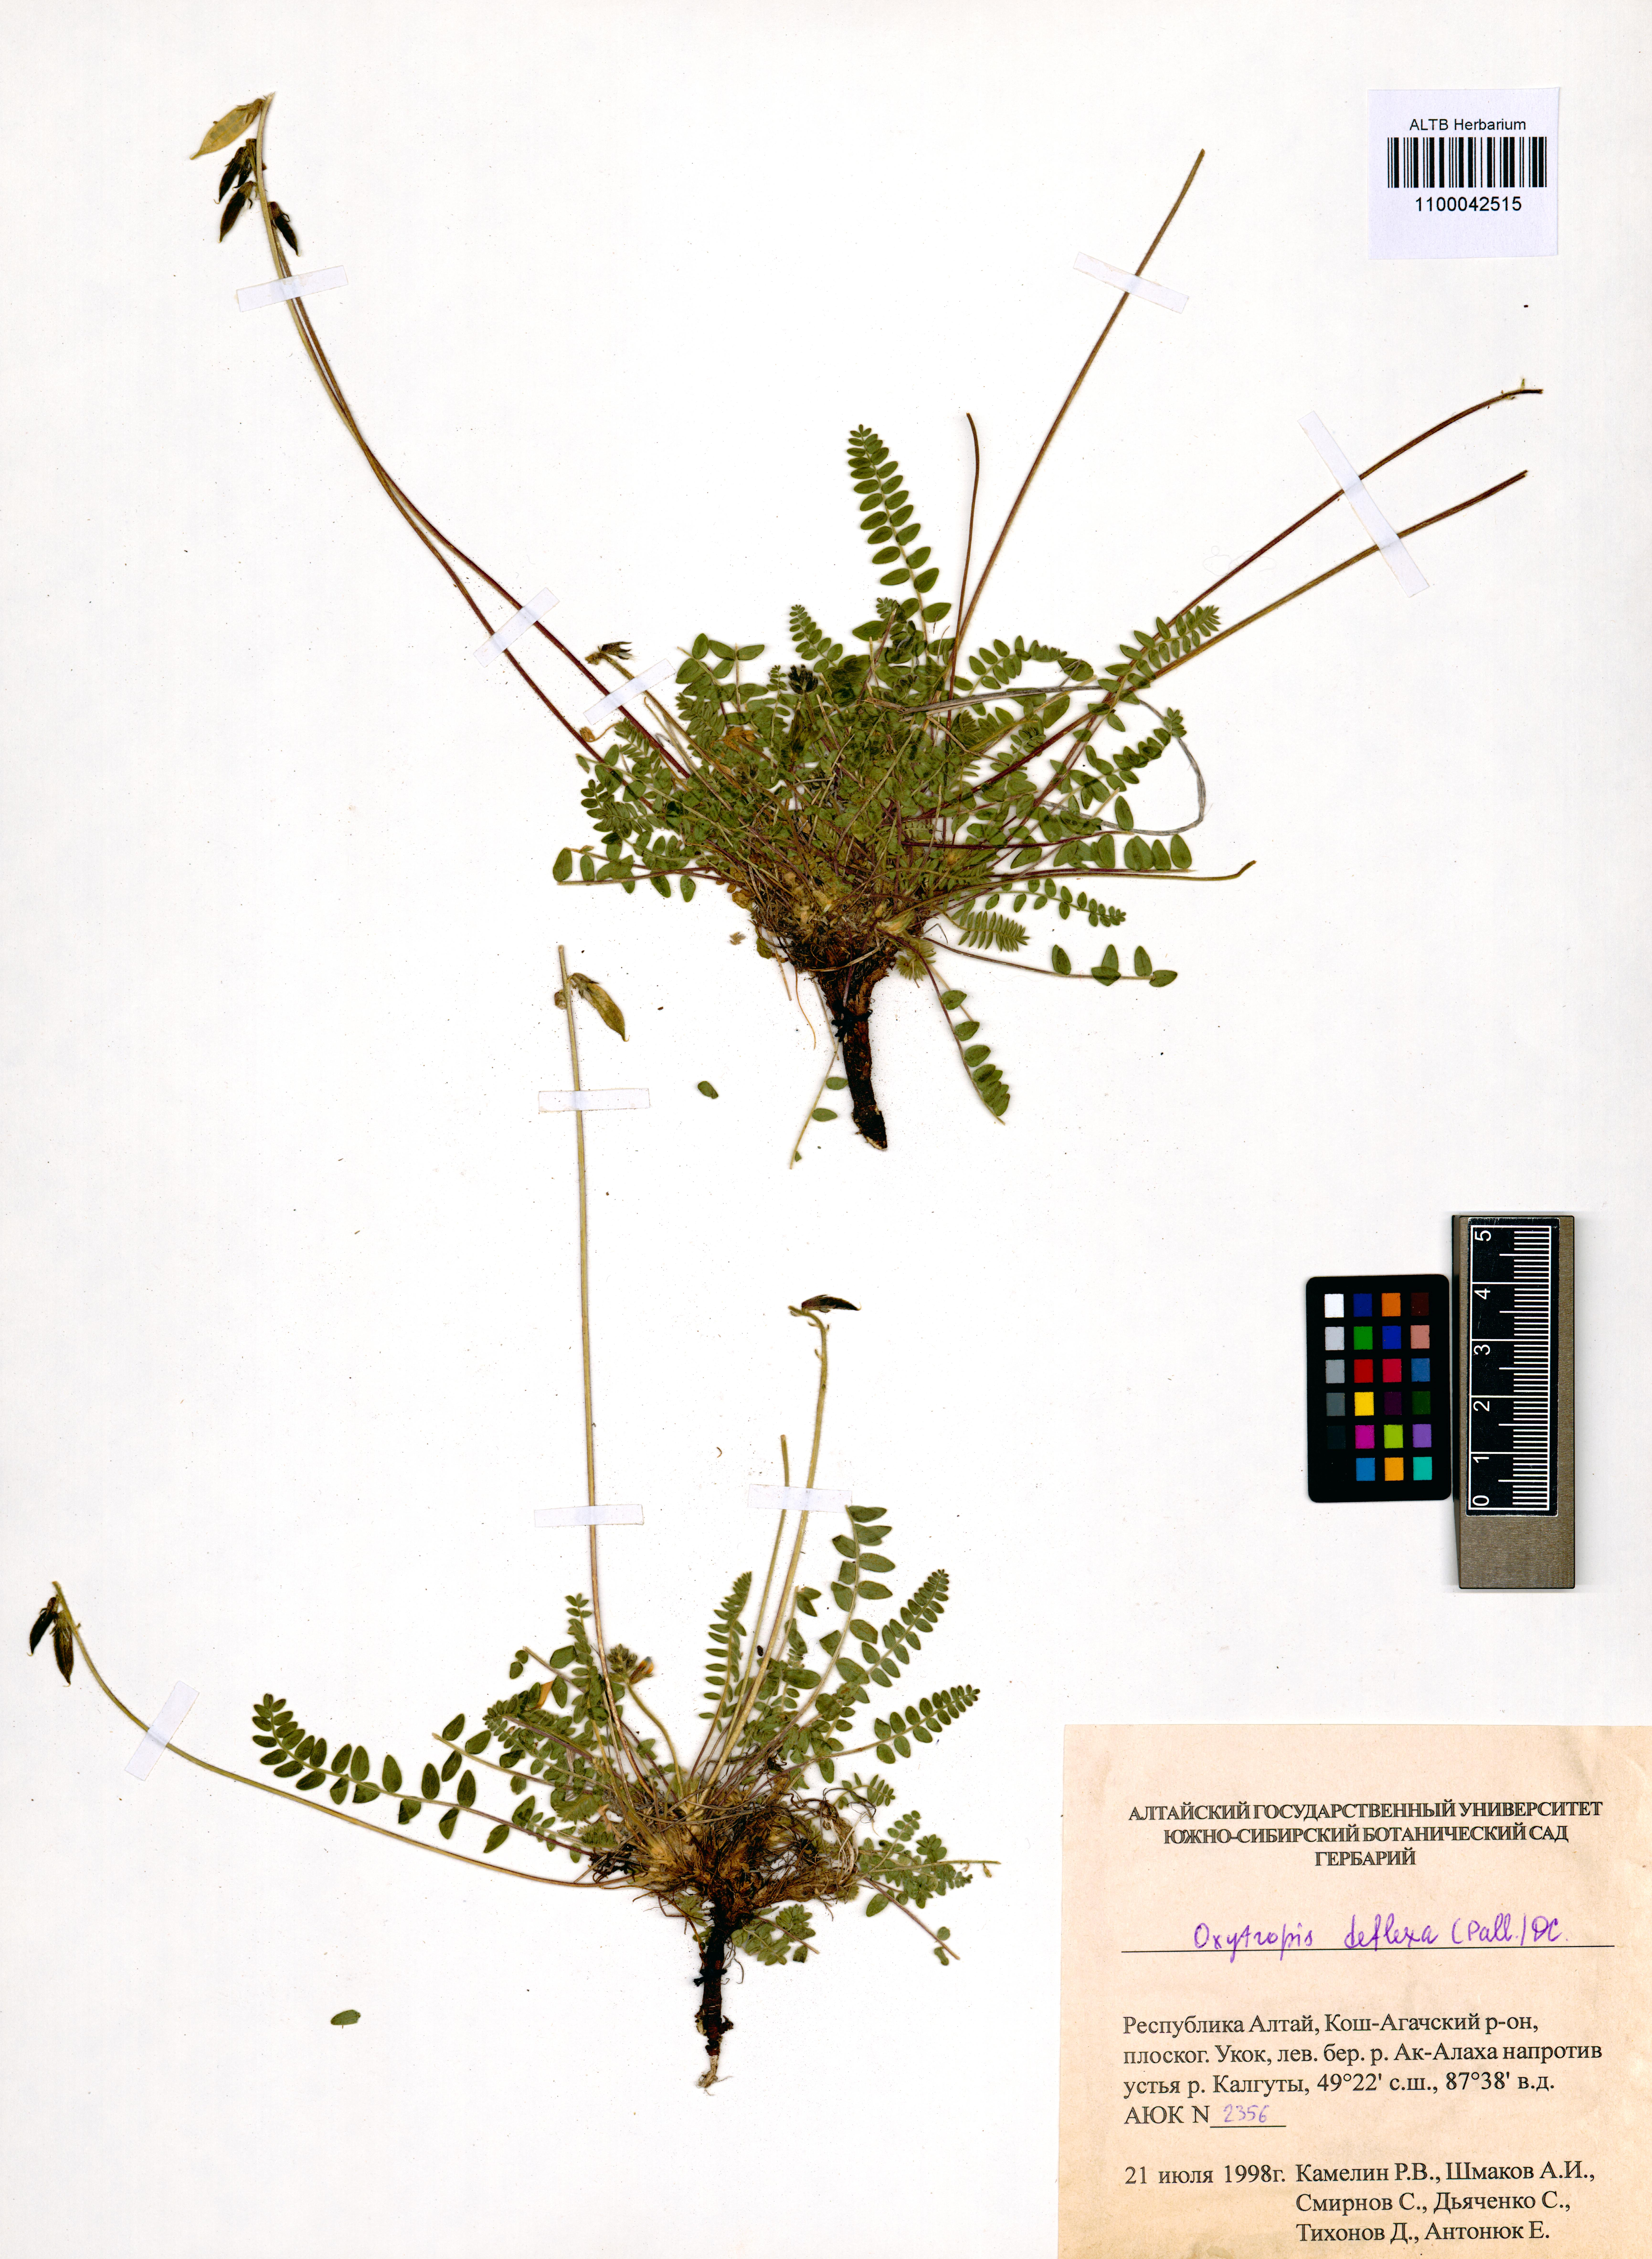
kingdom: Plantae
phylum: Tracheophyta
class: Magnoliopsida
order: Fabales
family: Fabaceae
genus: Oxytropis
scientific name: Oxytropis deflexa
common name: Stemmed oxytrope
